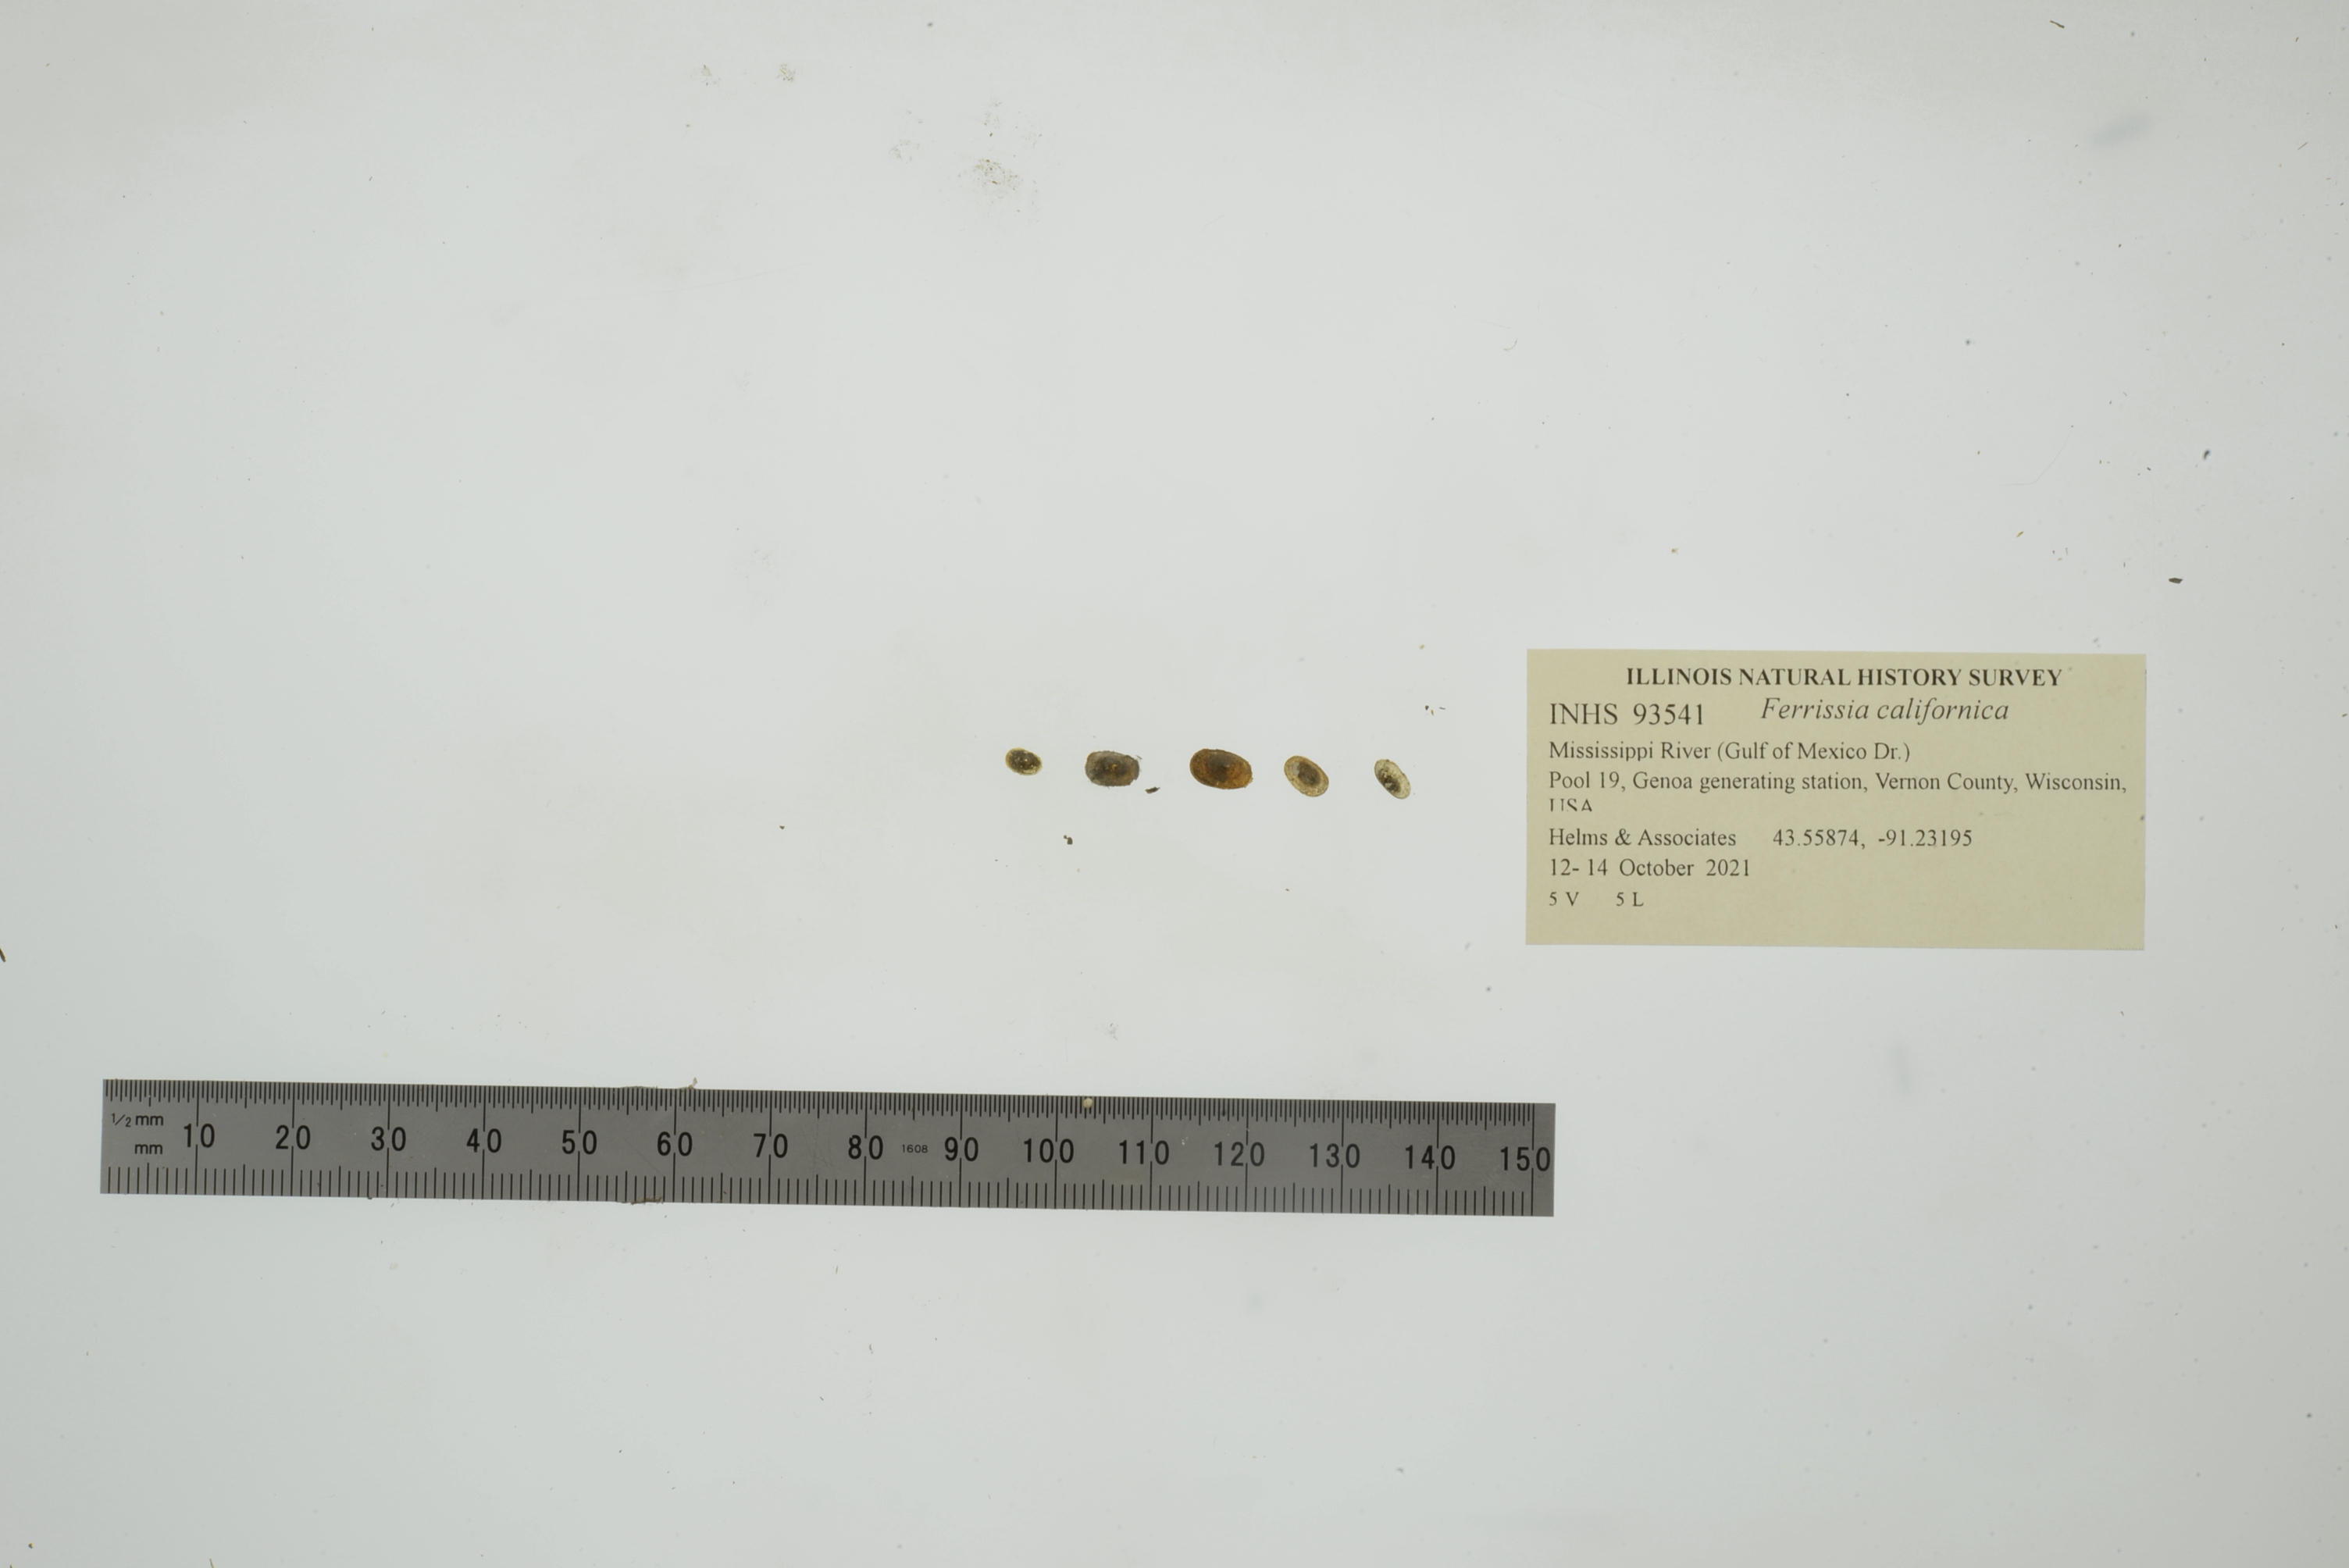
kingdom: Animalia
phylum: Mollusca
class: Gastropoda
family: Planorbidae
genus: Ferrissia
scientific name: Ferrissia californica
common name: Fragile ancylid
